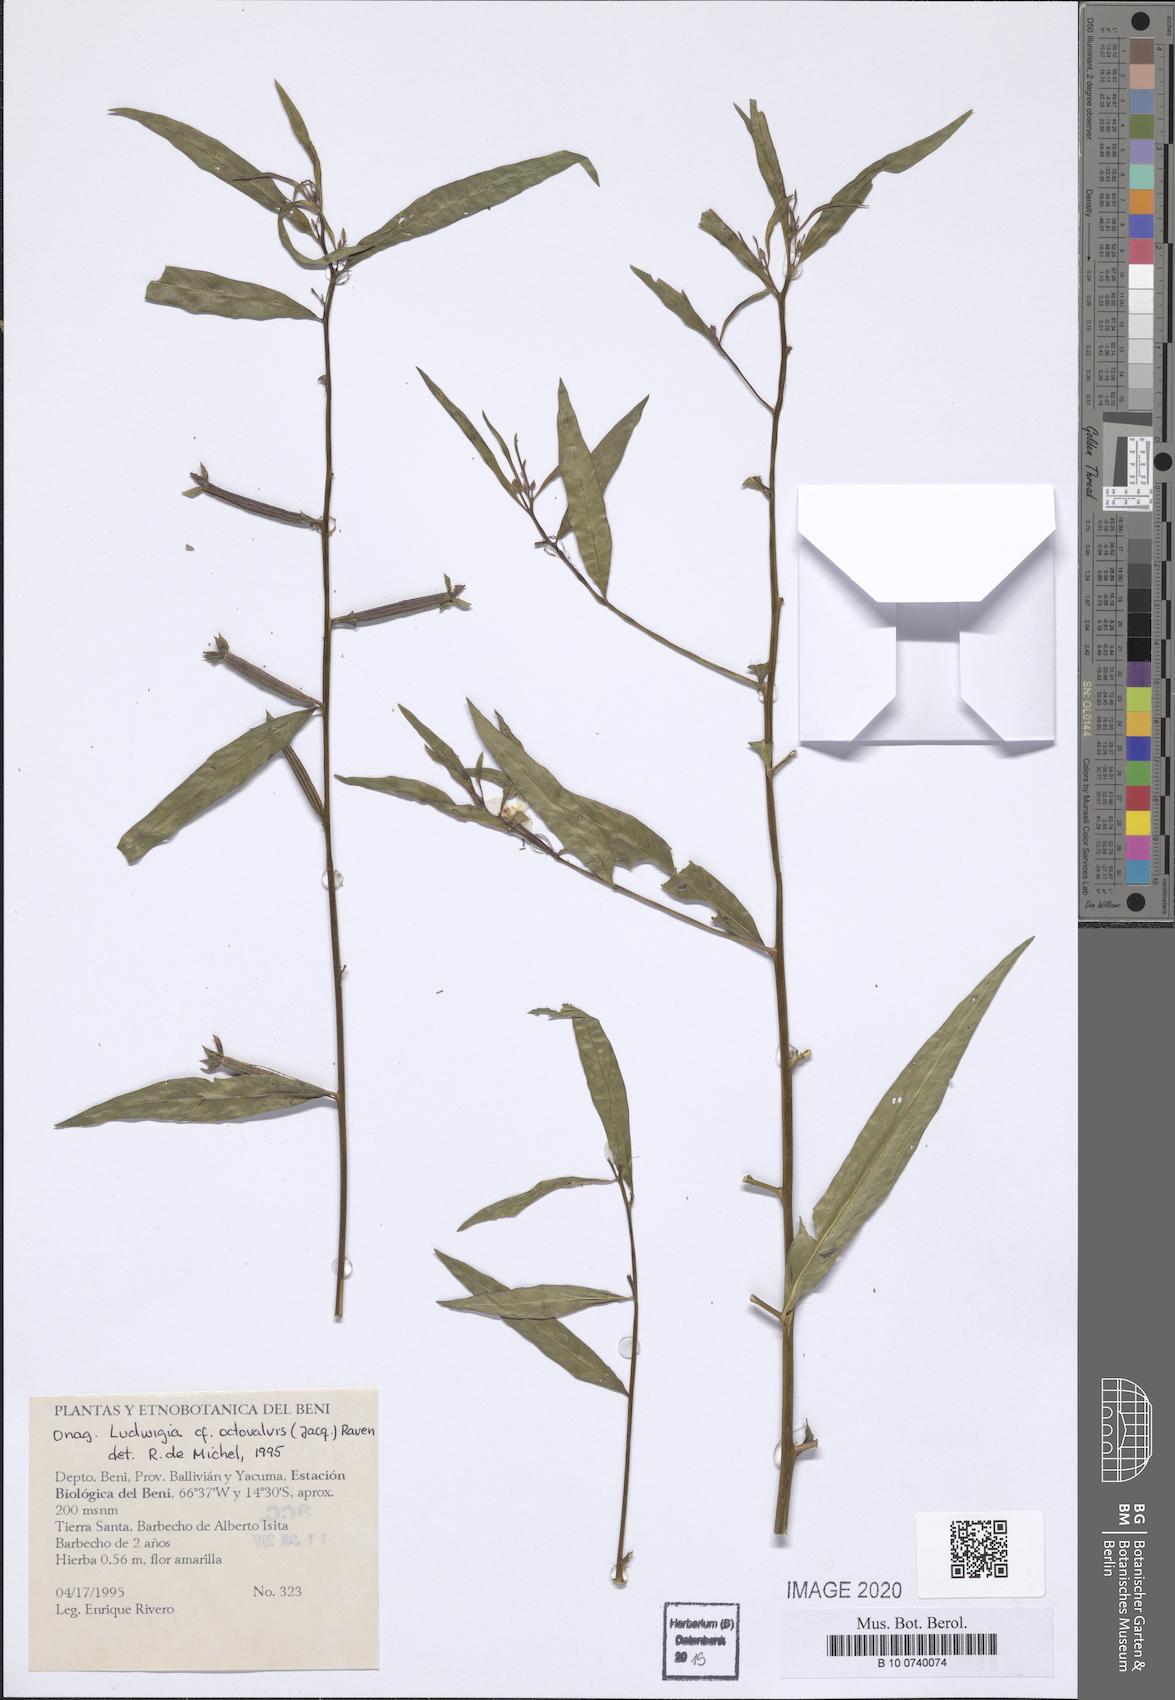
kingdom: Plantae
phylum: Tracheophyta
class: Magnoliopsida
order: Myrtales
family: Onagraceae
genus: Ludwigia
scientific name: Ludwigia octovalvis
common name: Water-primrose
